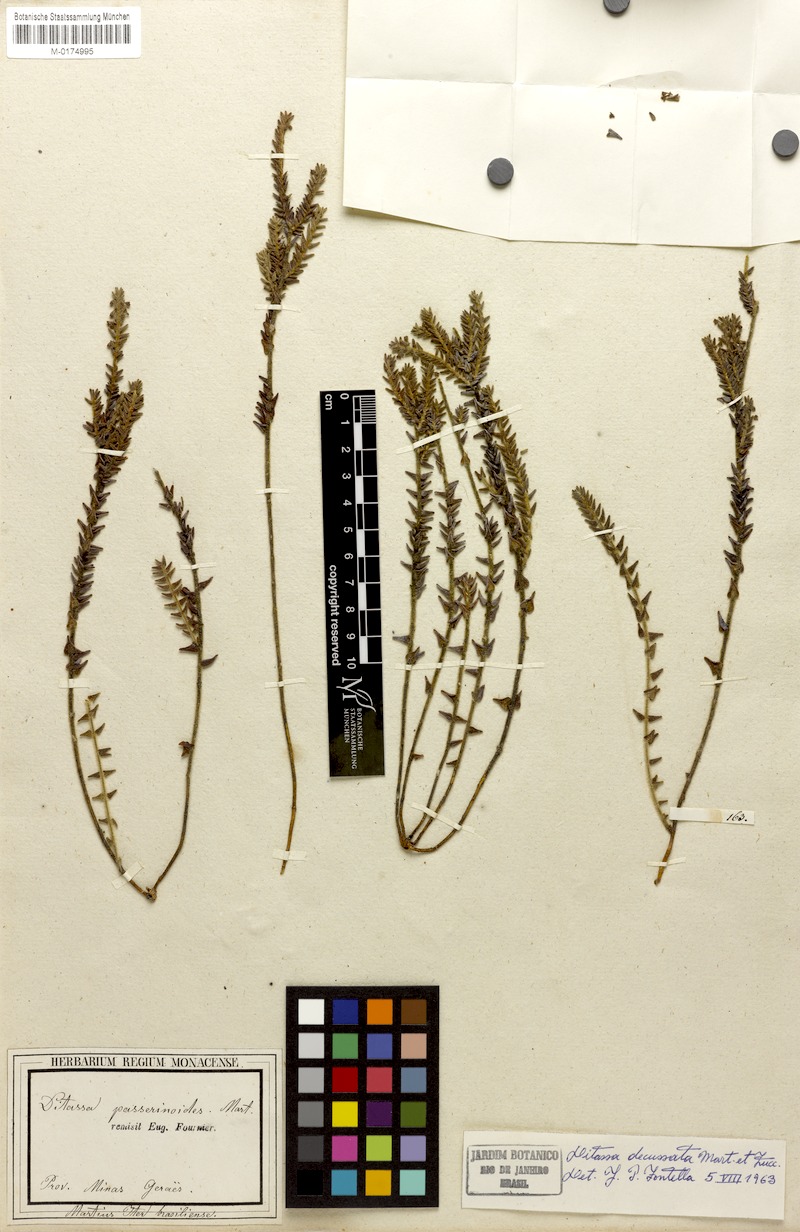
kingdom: Plantae
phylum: Tracheophyta
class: Magnoliopsida
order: Gentianales
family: Apocynaceae
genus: Minaria
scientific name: Minaria decussata
